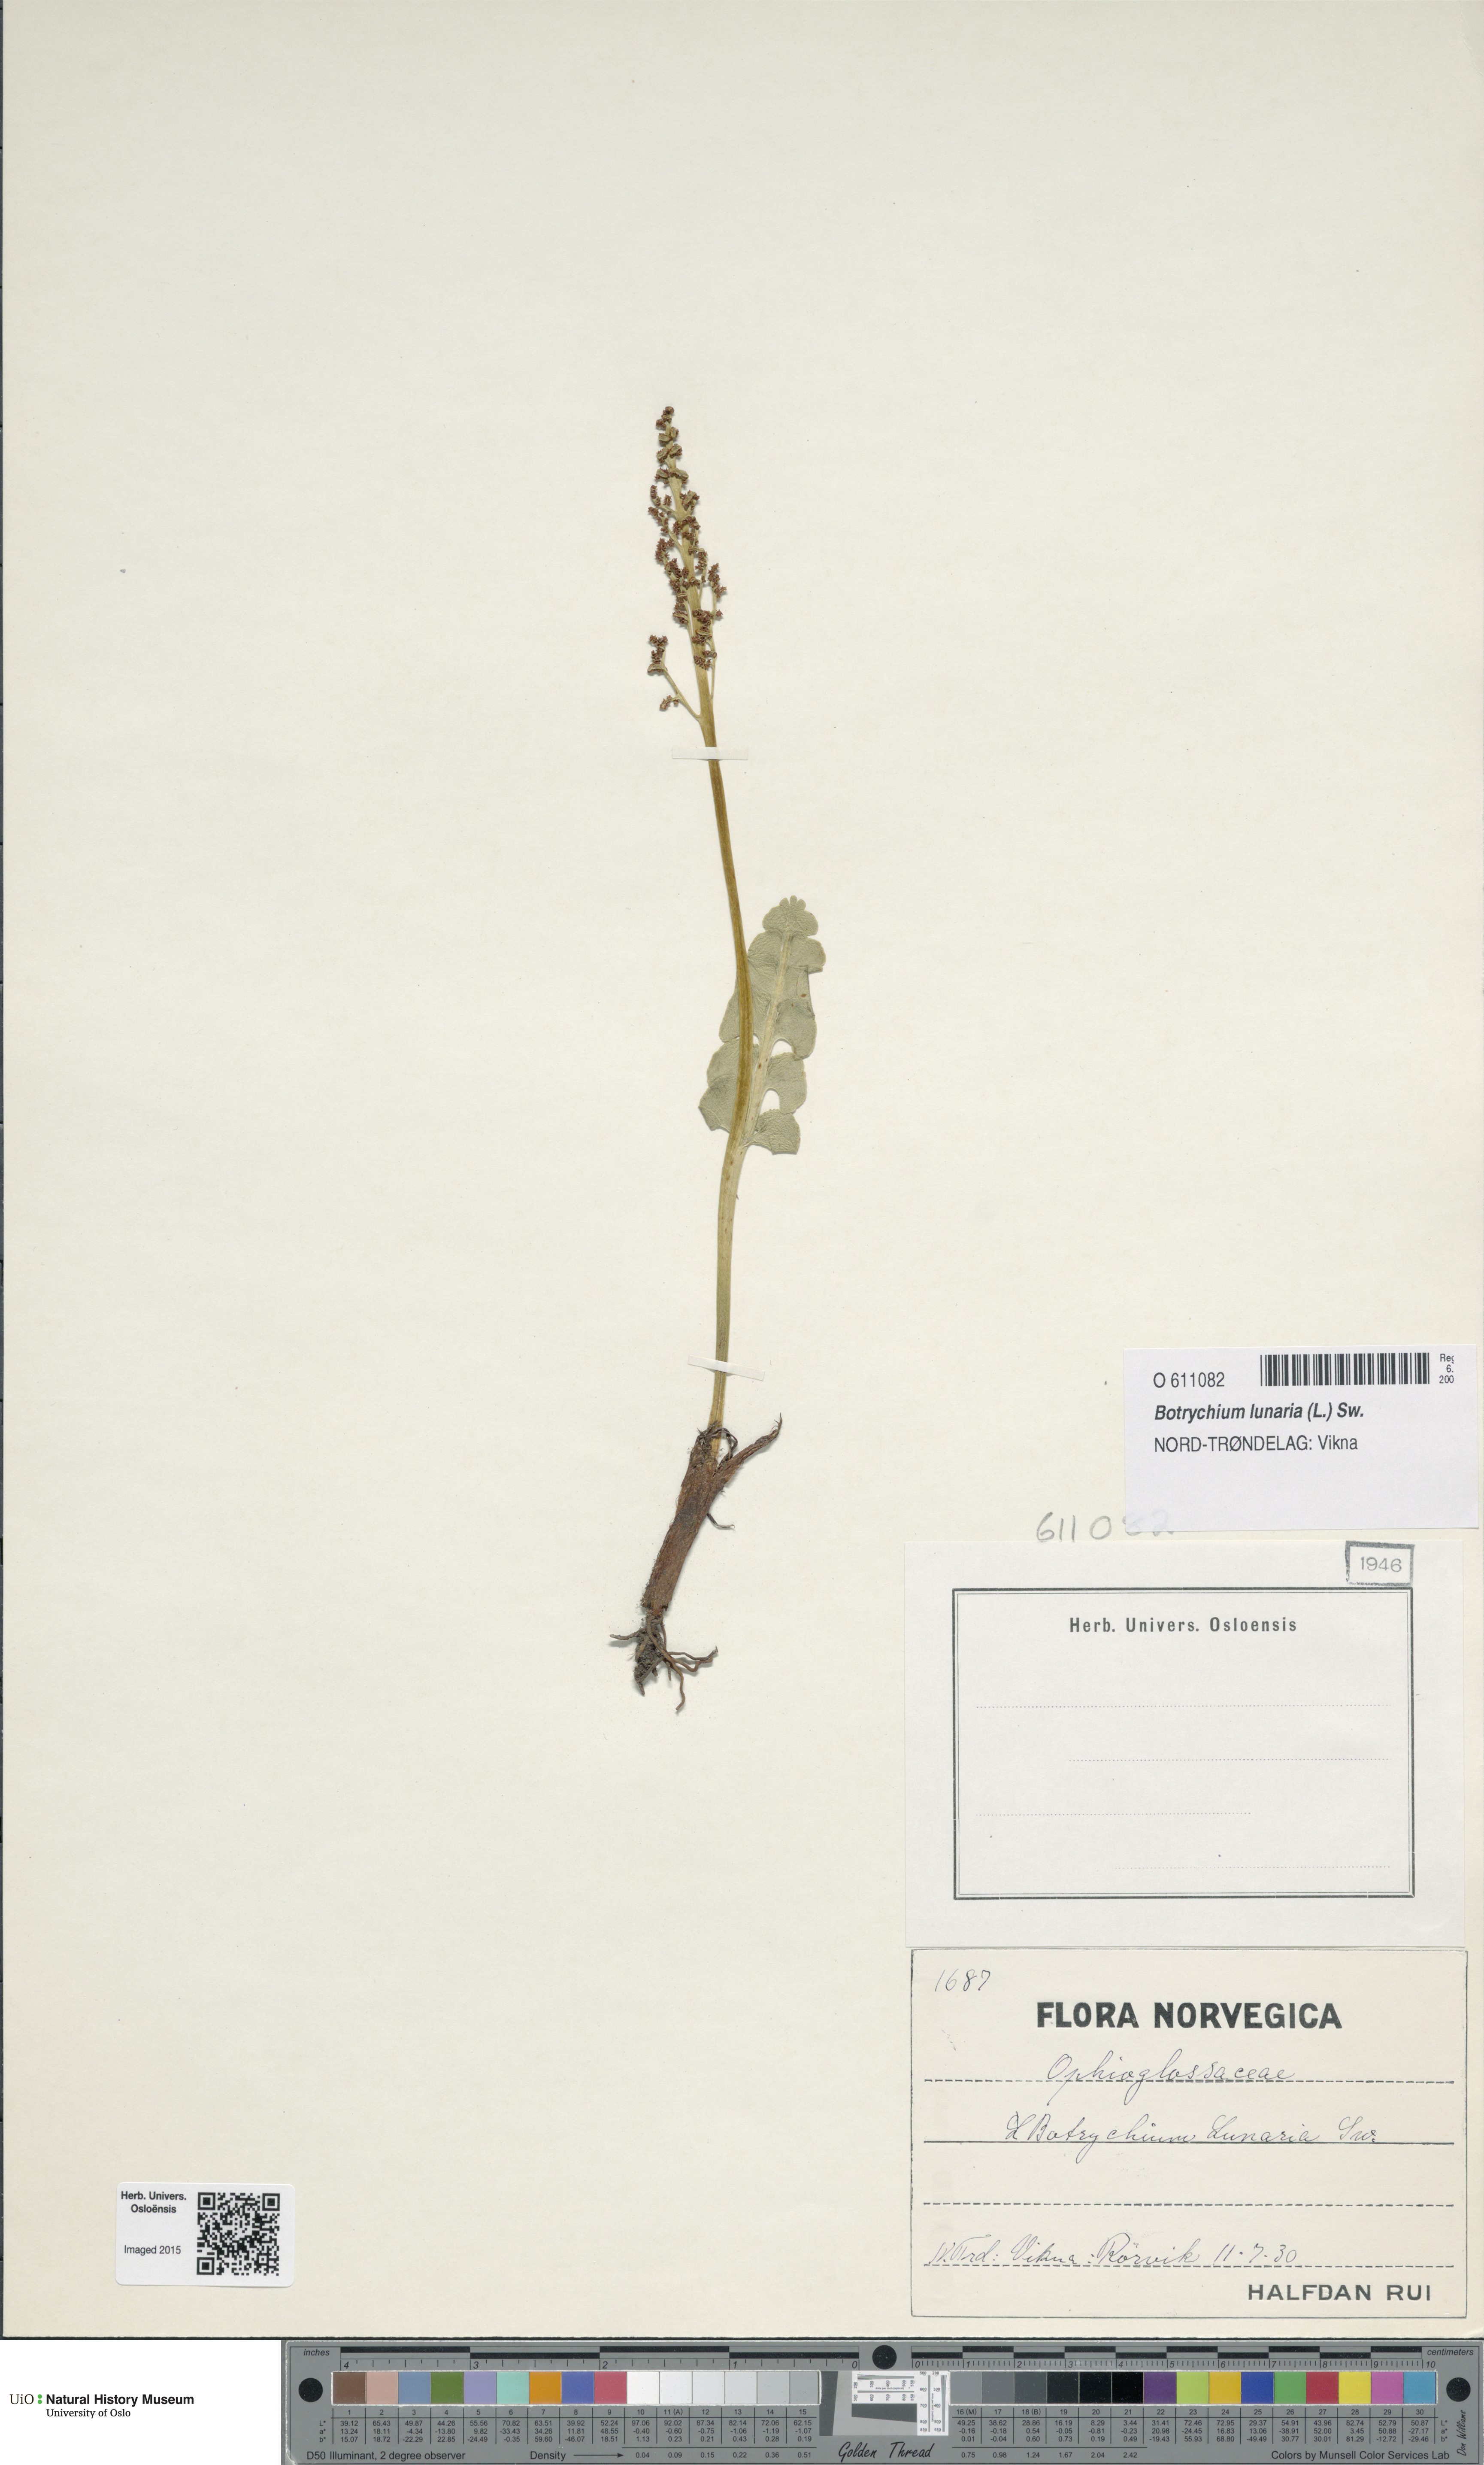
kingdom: Plantae
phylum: Tracheophyta
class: Polypodiopsida
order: Ophioglossales
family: Ophioglossaceae
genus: Botrychium
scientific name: Botrychium lunaria
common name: Moonwort
